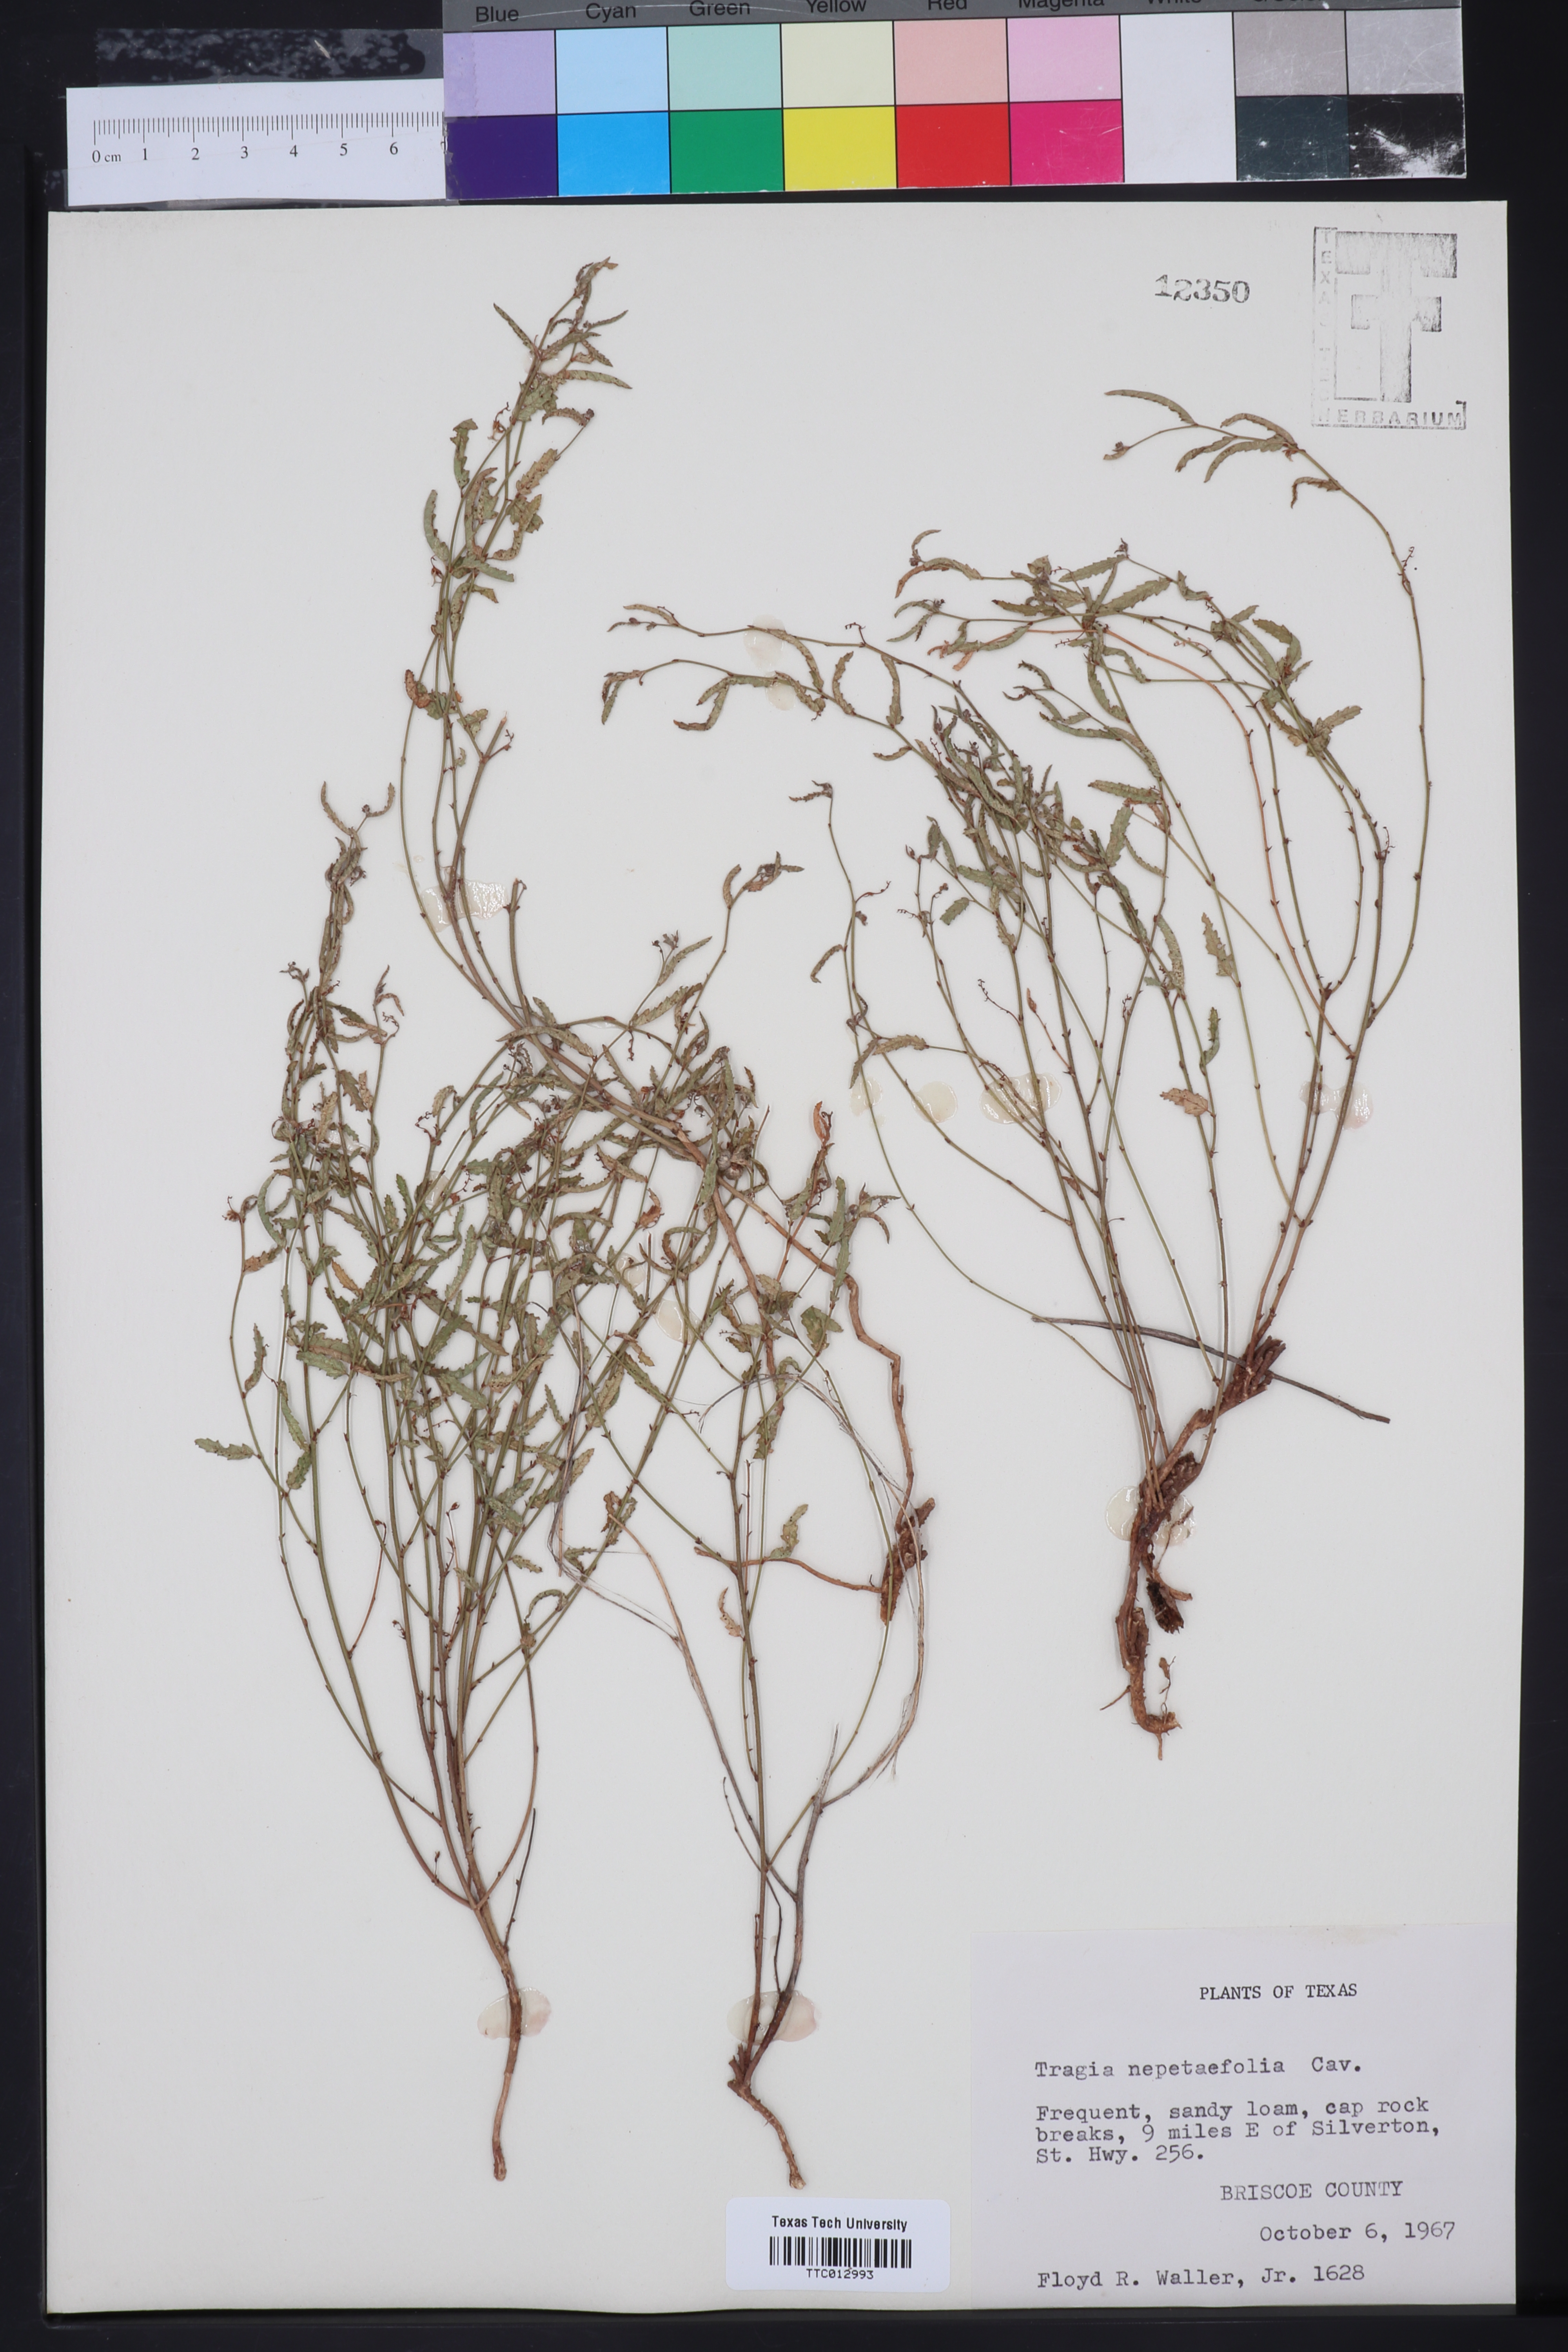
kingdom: Plantae
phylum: Tracheophyta
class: Magnoliopsida
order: Malpighiales
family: Euphorbiaceae
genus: Tragia
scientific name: Tragia nepetifolia
